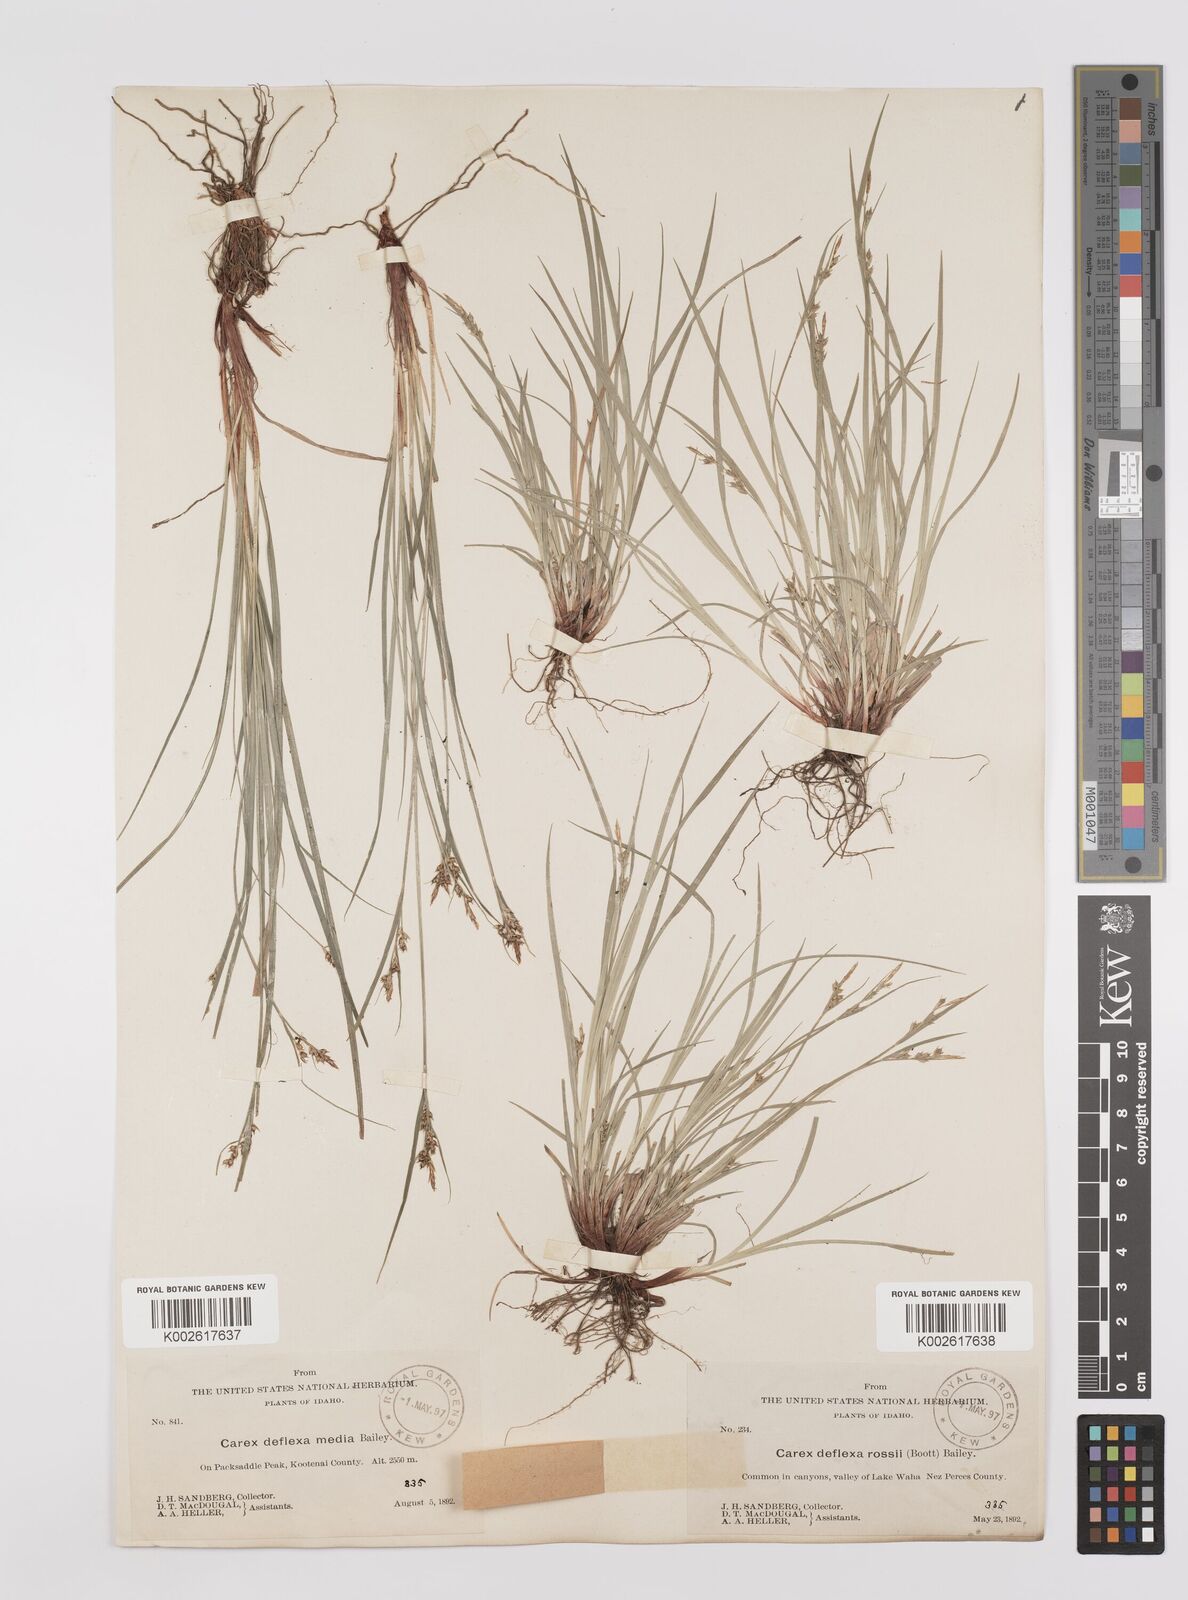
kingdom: Plantae
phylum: Tracheophyta
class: Liliopsida
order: Poales
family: Cyperaceae
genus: Carex
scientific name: Carex rossii
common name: Ross' sedge
